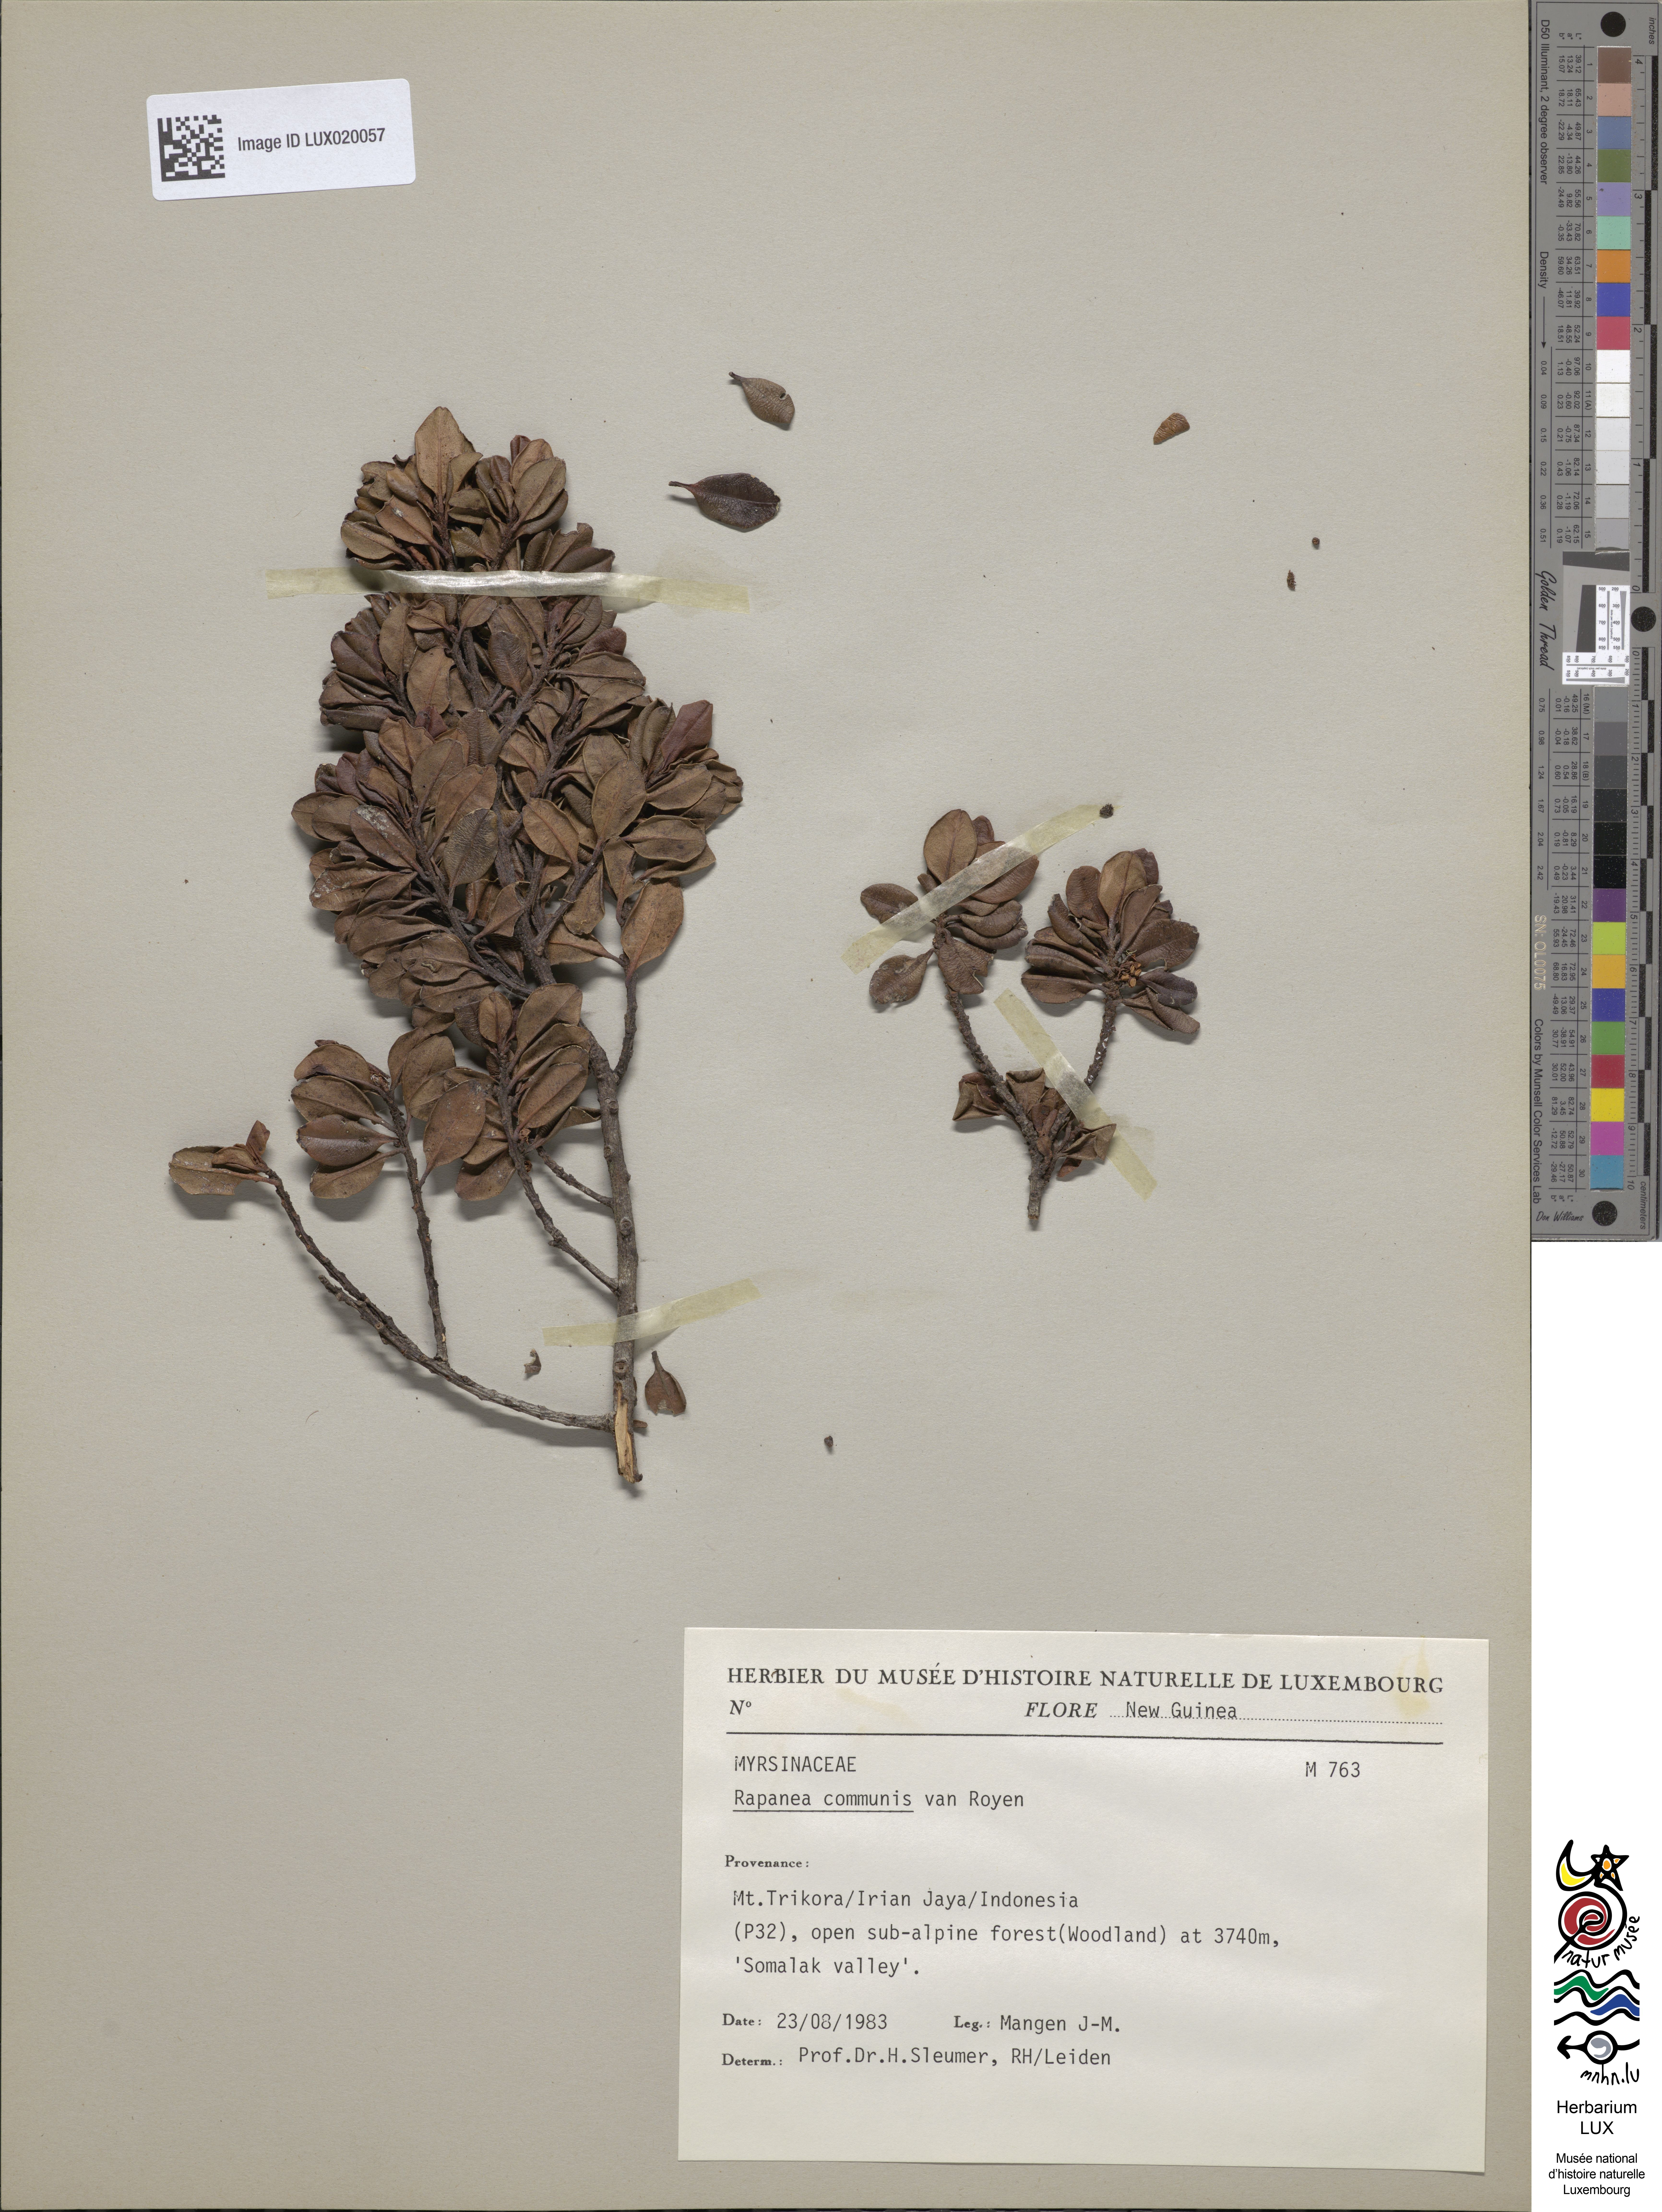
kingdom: Plantae
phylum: Tracheophyta
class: Magnoliopsida
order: Ericales
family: Primulaceae
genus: Myrsine
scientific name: Myrsine cacuminum
